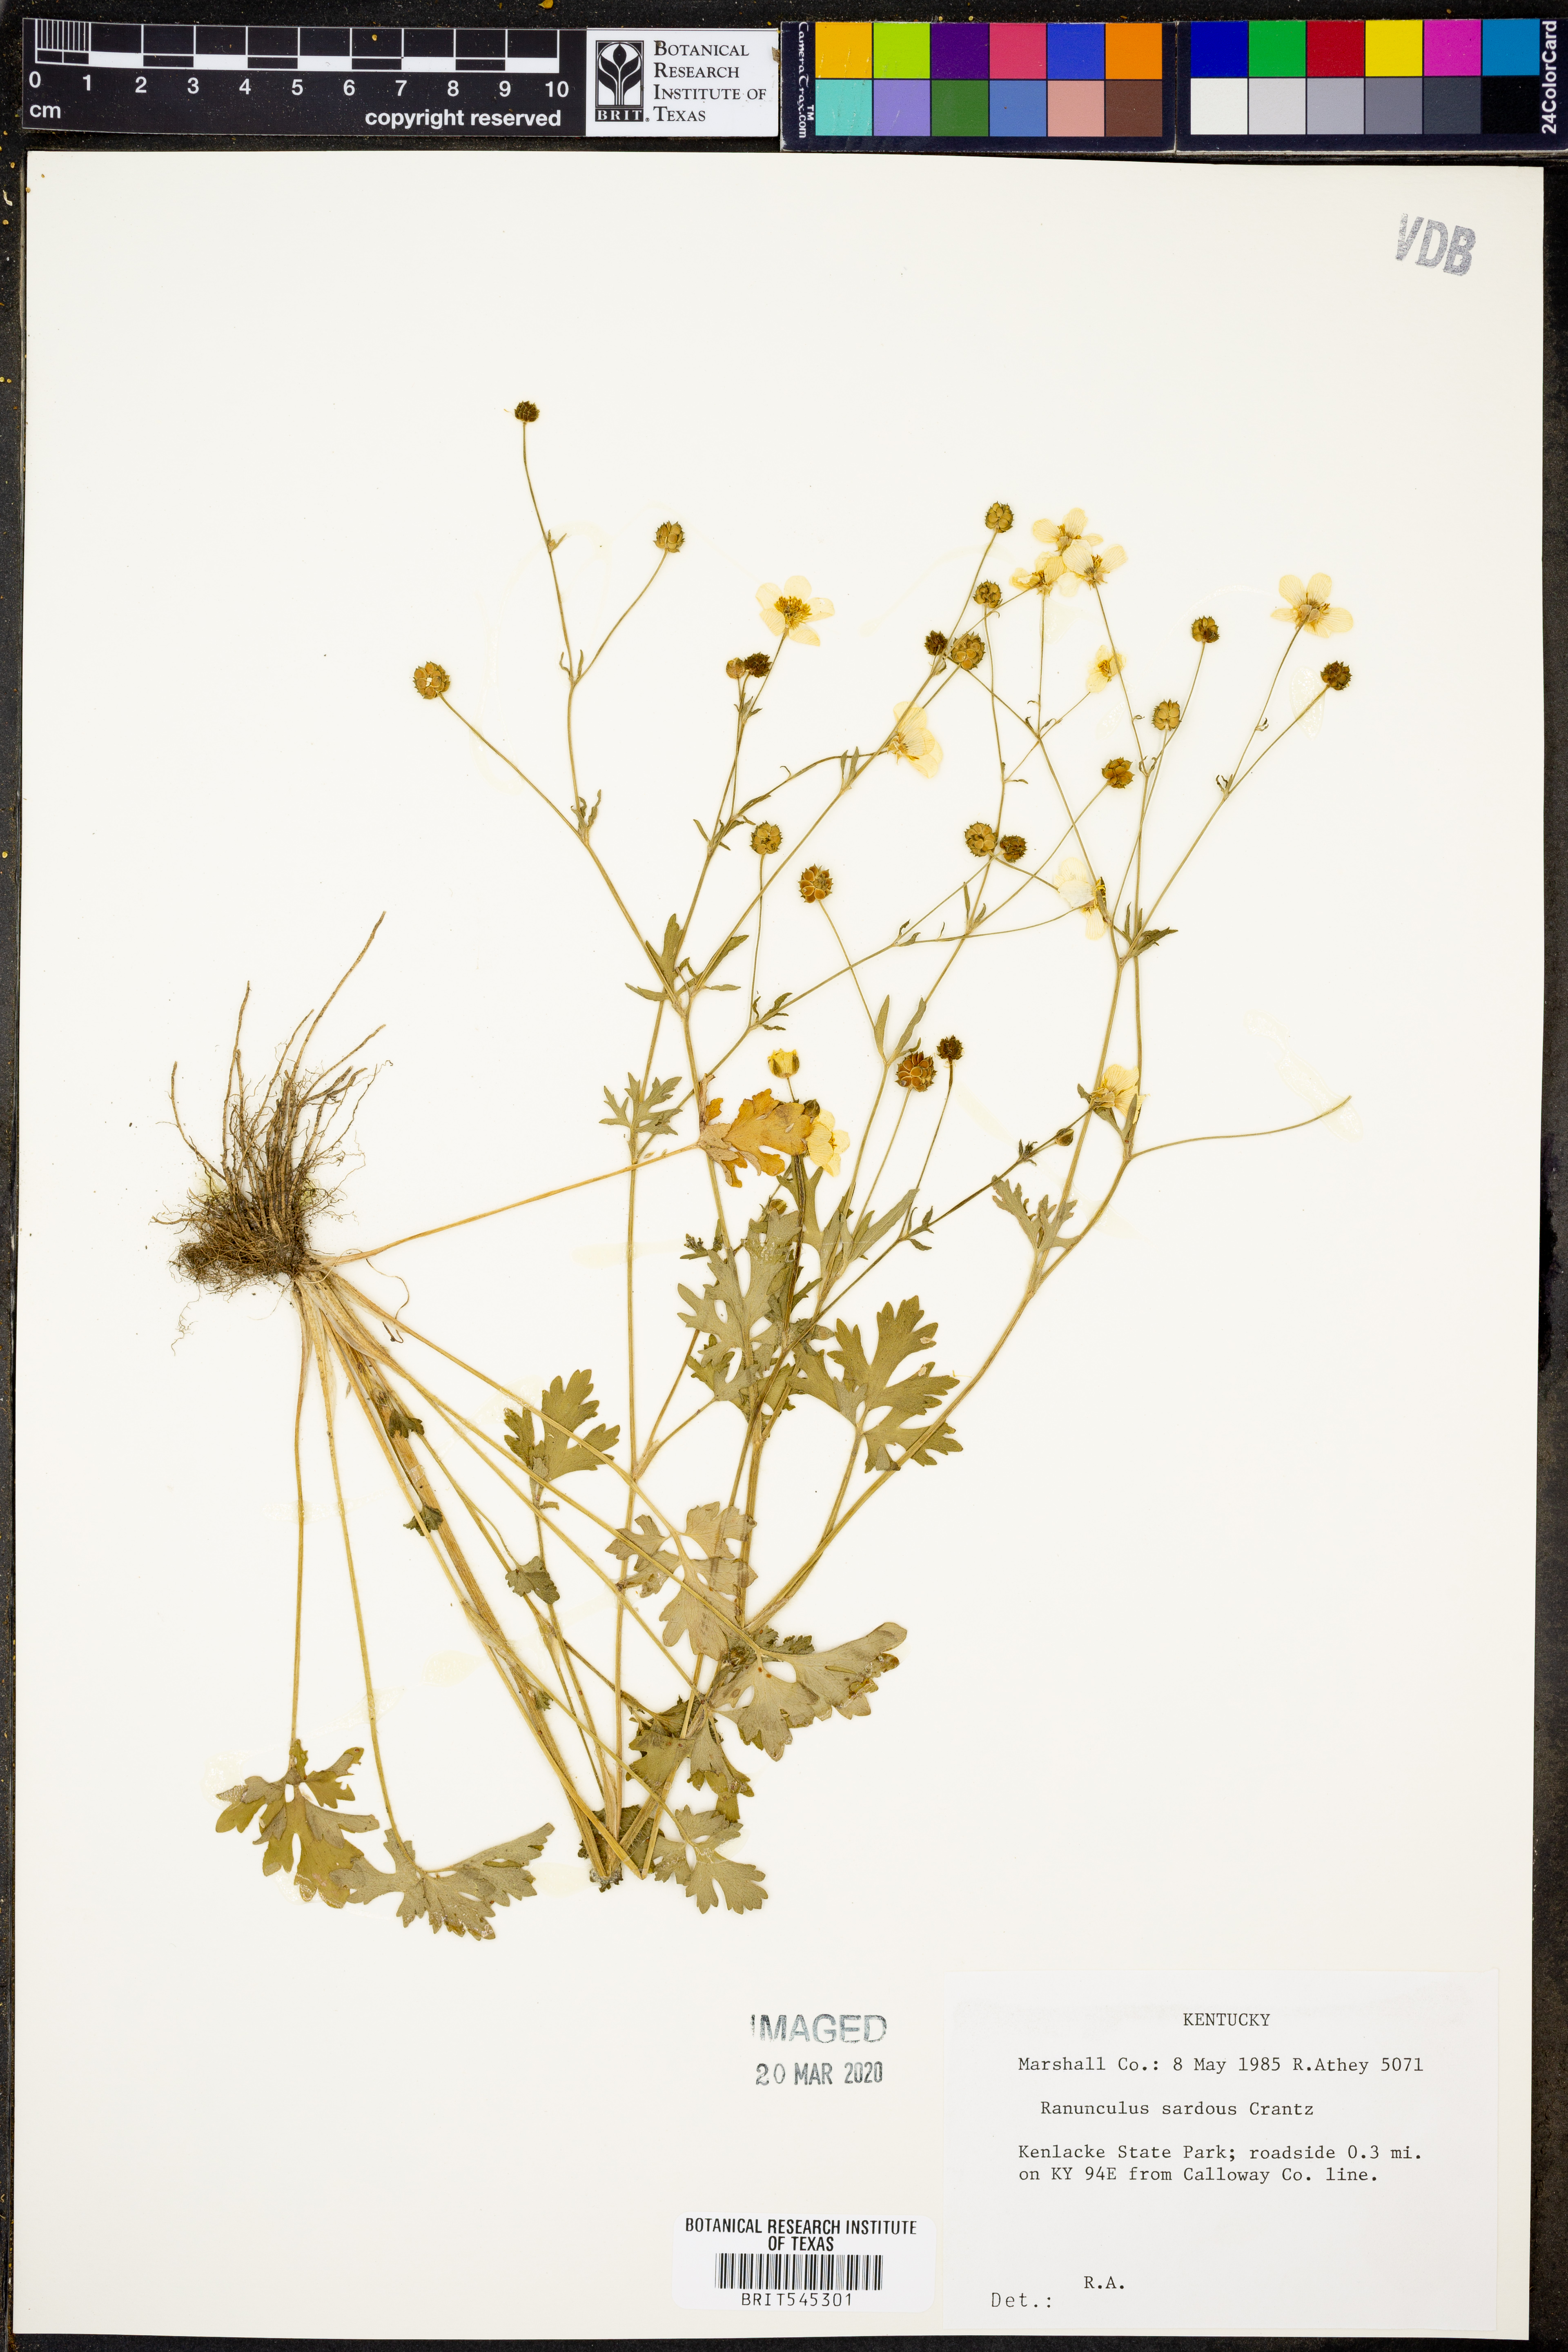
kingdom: Plantae
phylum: Tracheophyta
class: Magnoliopsida
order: Ranunculales
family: Ranunculaceae
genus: Ranunculus
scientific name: Ranunculus sardous
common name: Hairy buttercup
